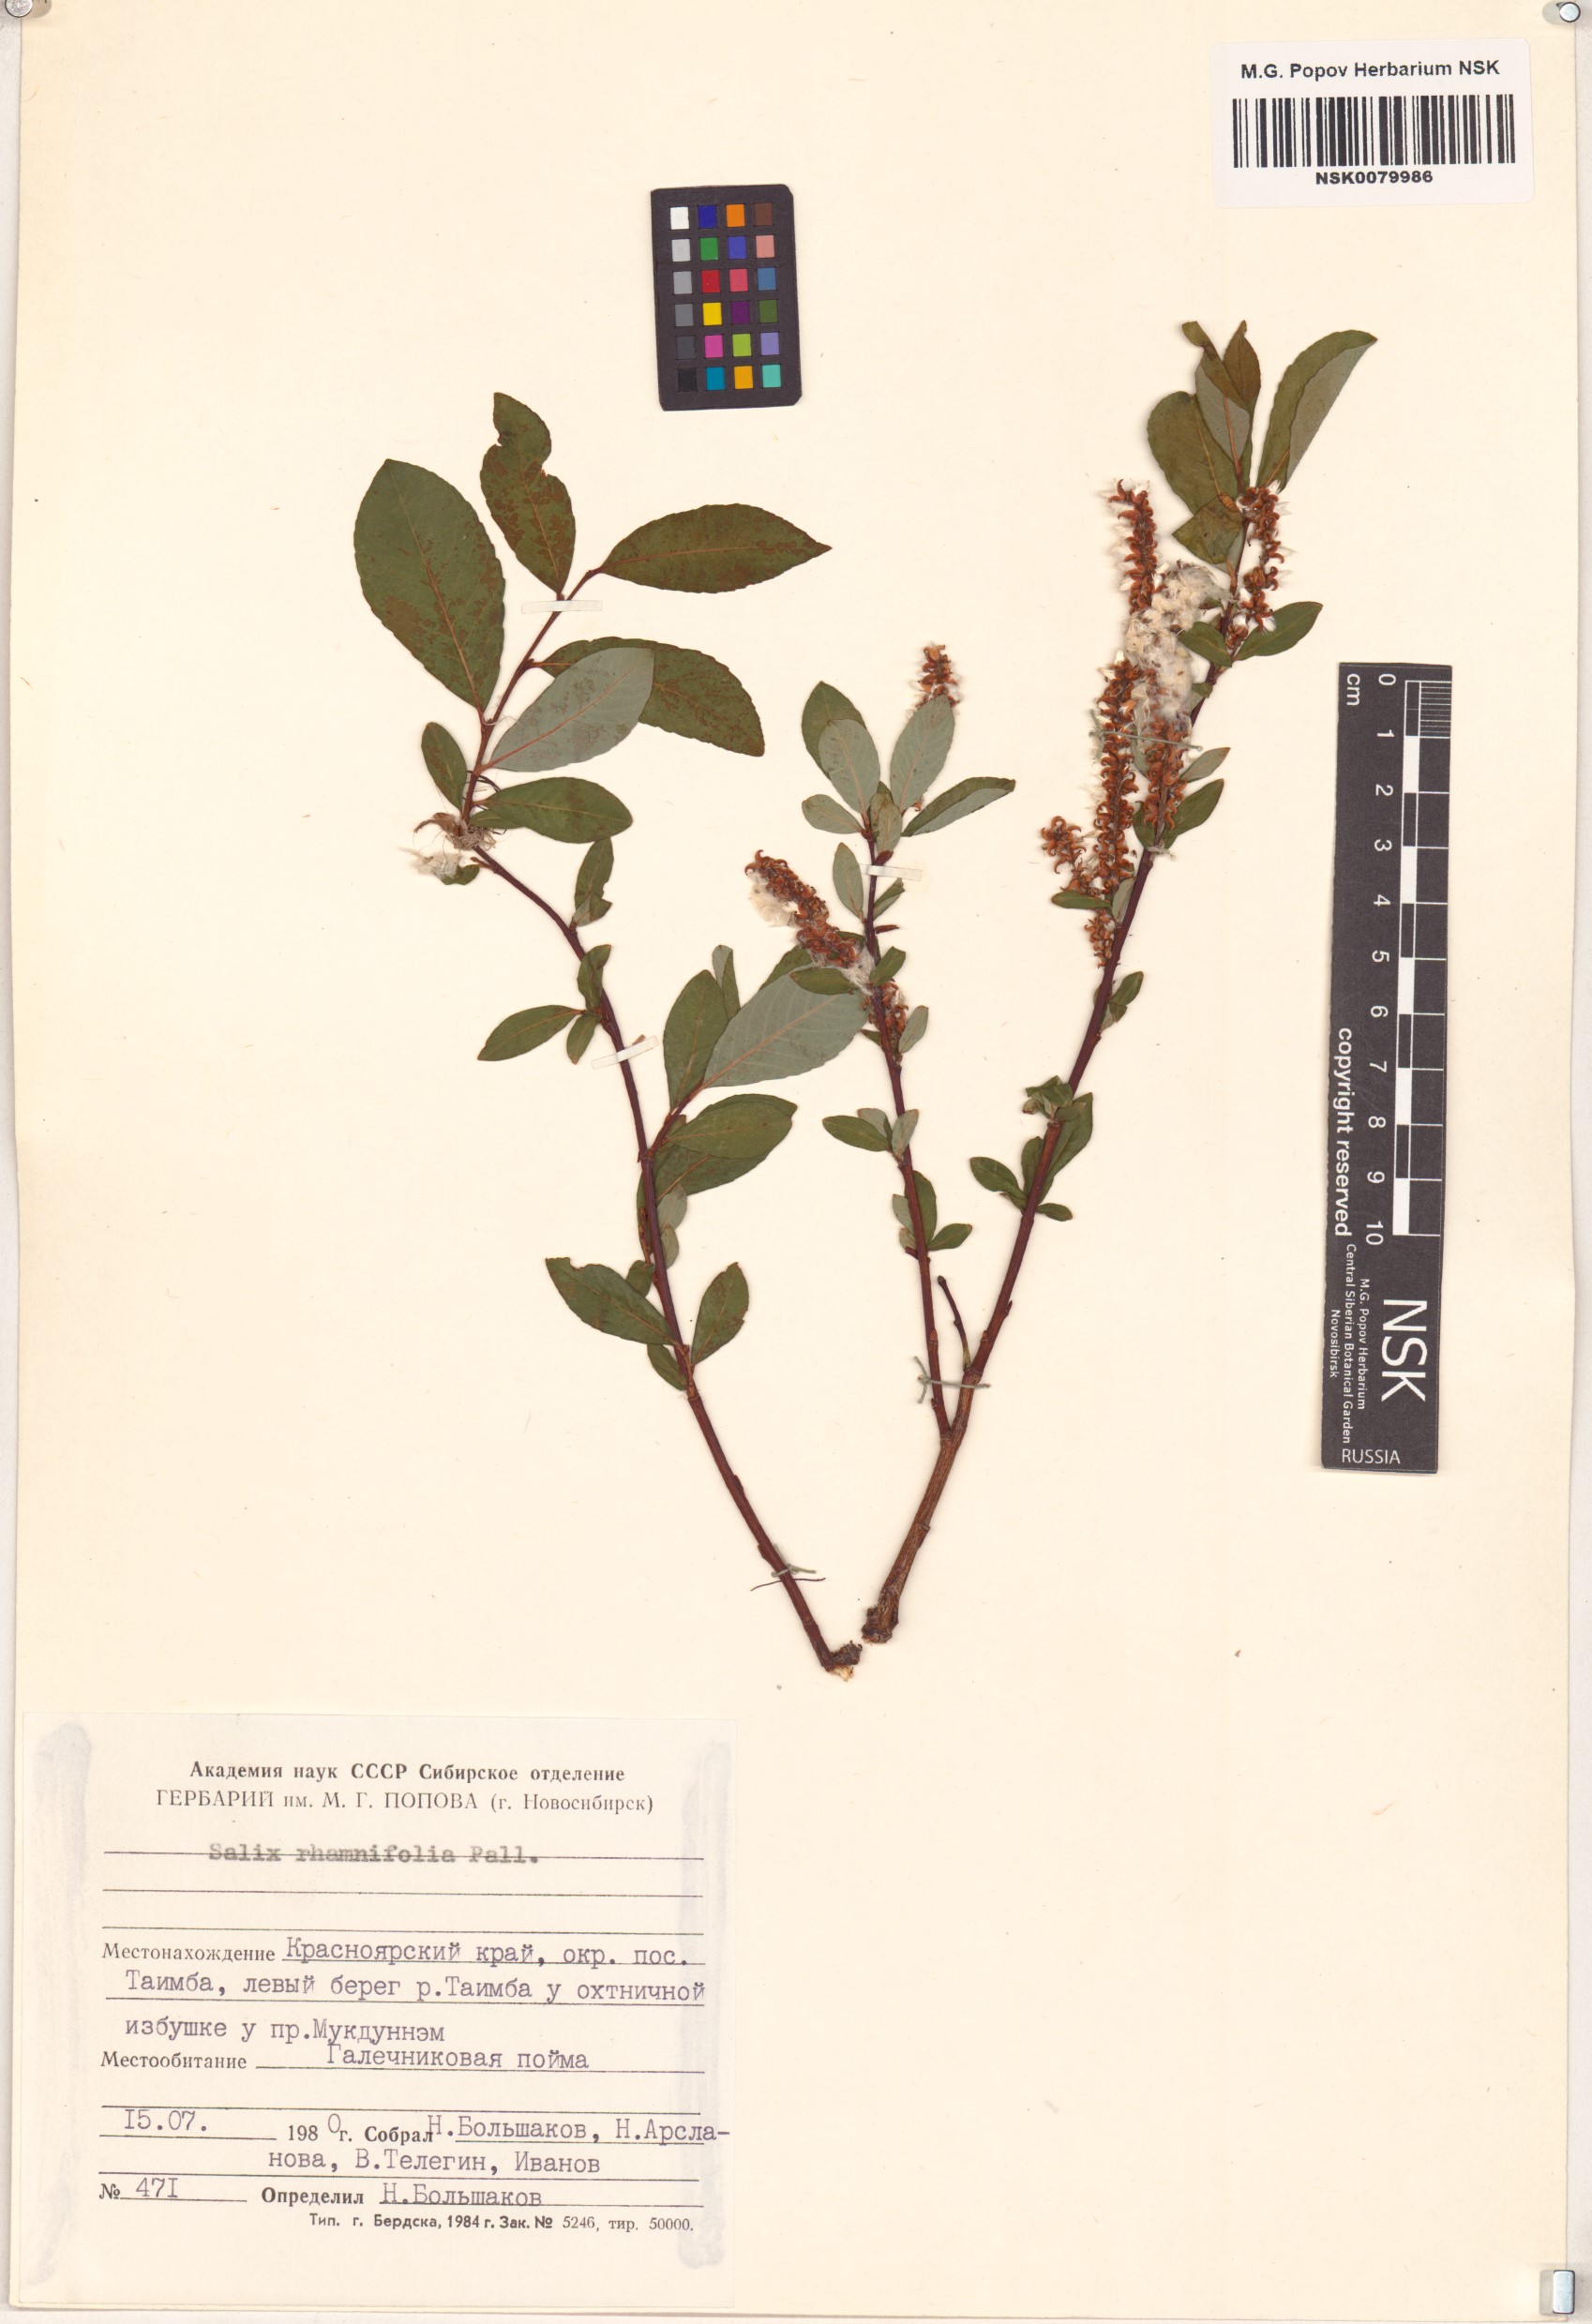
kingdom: Plantae
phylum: Tracheophyta
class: Magnoliopsida
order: Malpighiales
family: Salicaceae
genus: Salix
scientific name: Salix rhamnifolia
